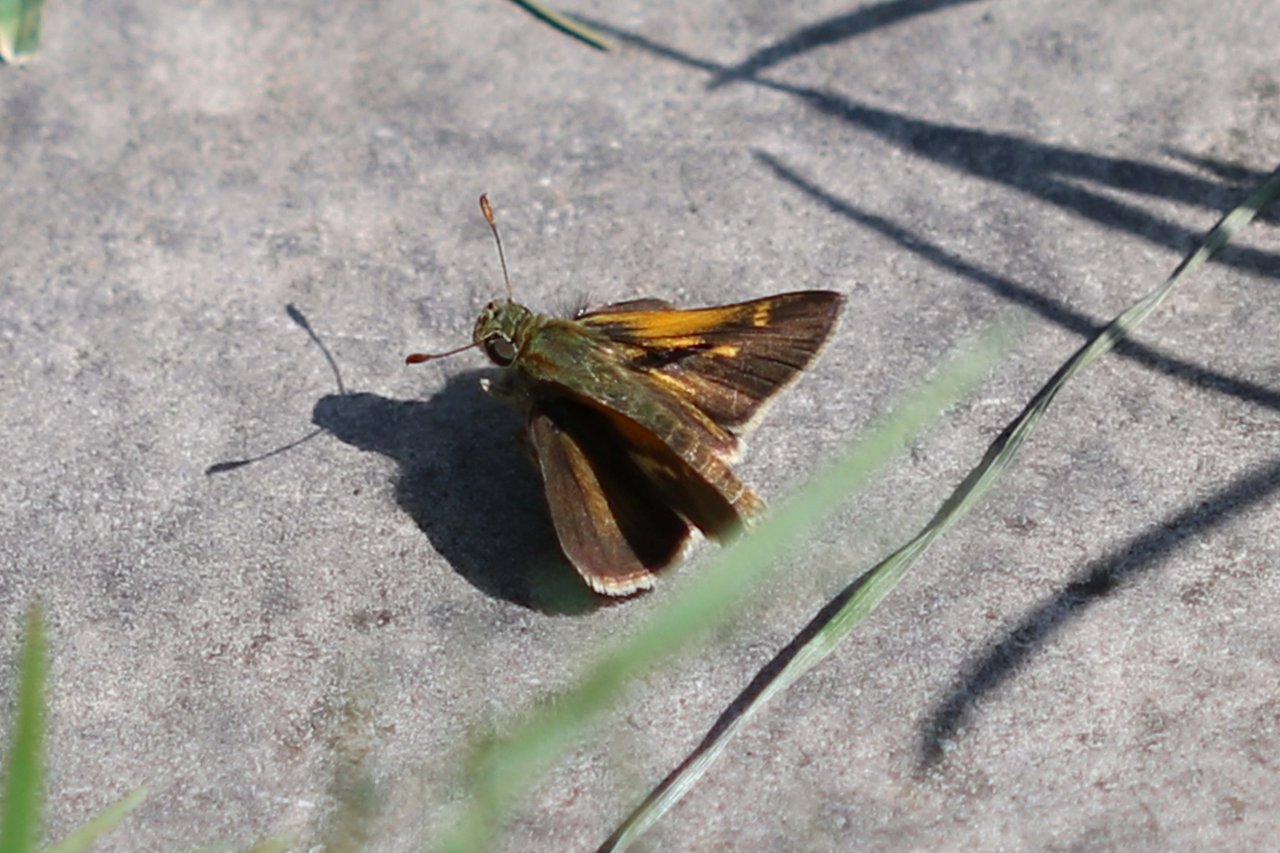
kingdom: Animalia
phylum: Arthropoda
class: Insecta
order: Lepidoptera
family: Hesperiidae
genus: Polites
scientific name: Polites themistocles
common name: Tawny-edged Skipper
